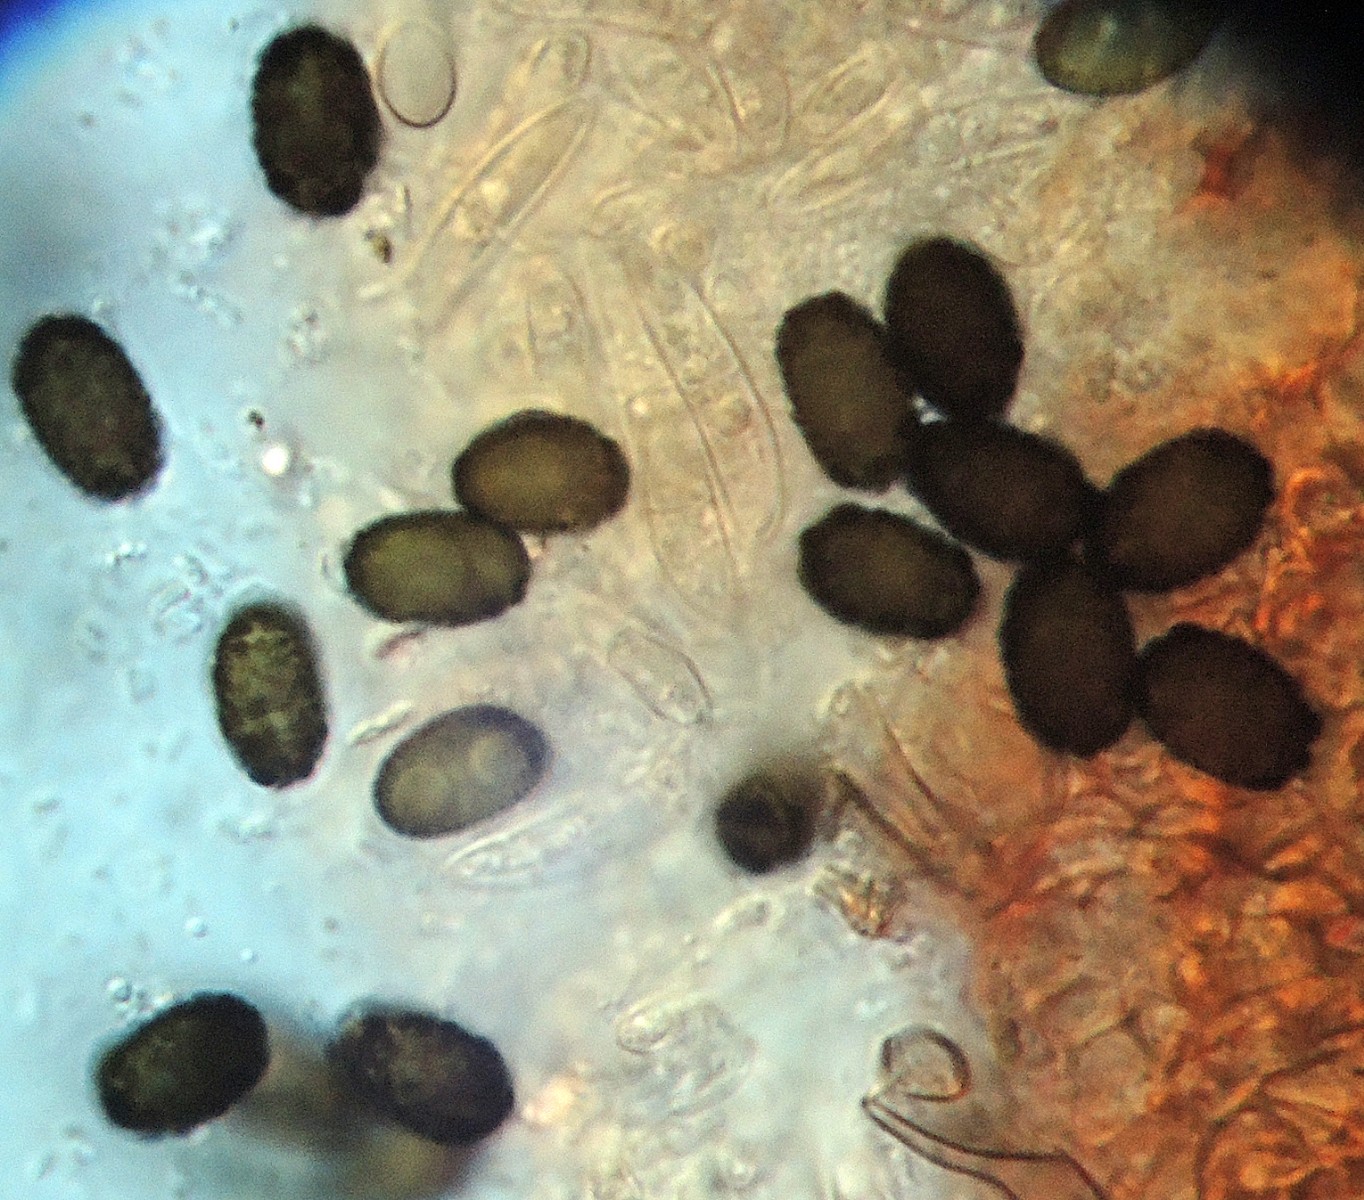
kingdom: Fungi
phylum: Ascomycota
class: Sordariomycetes
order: Hypocreales
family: Stachybotryaceae
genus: Memnoniella
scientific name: Memnoniella dichroa
